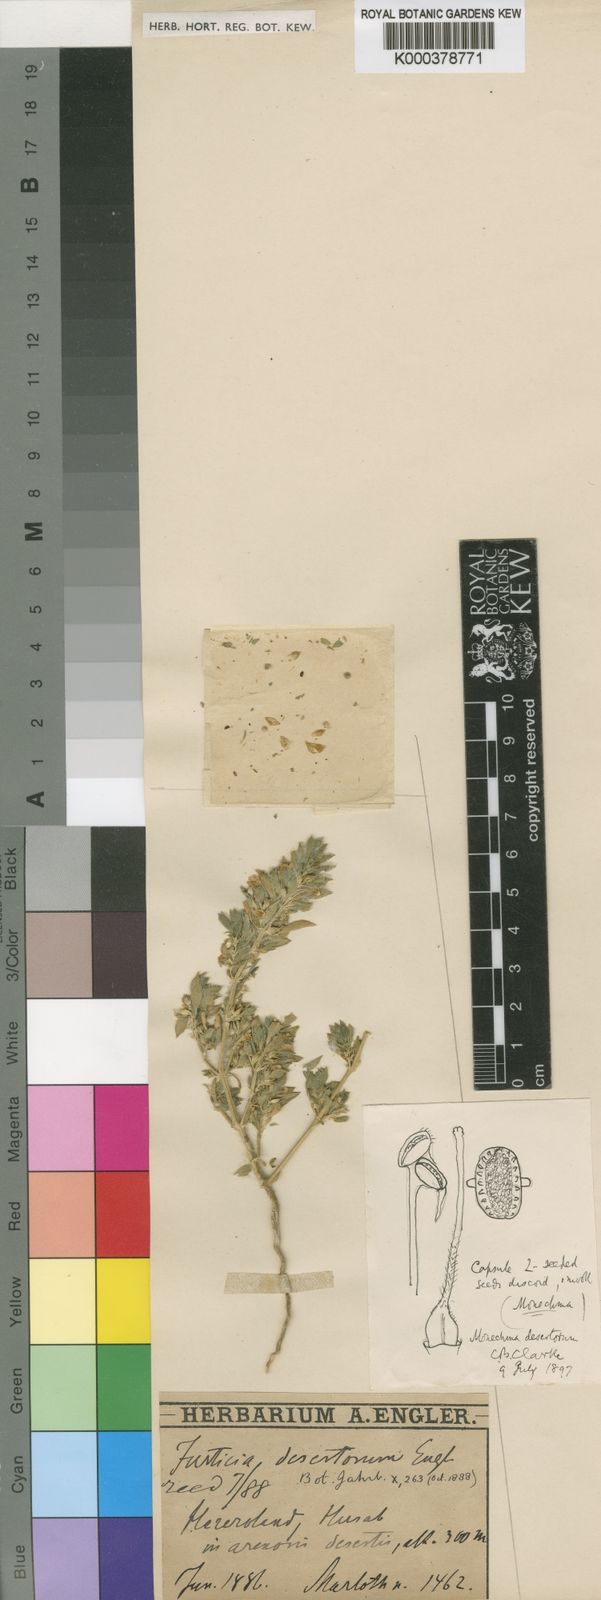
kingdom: Plantae
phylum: Tracheophyta
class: Magnoliopsida
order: Lamiales
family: Acanthaceae
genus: Monechma
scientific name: Monechma desertorum
